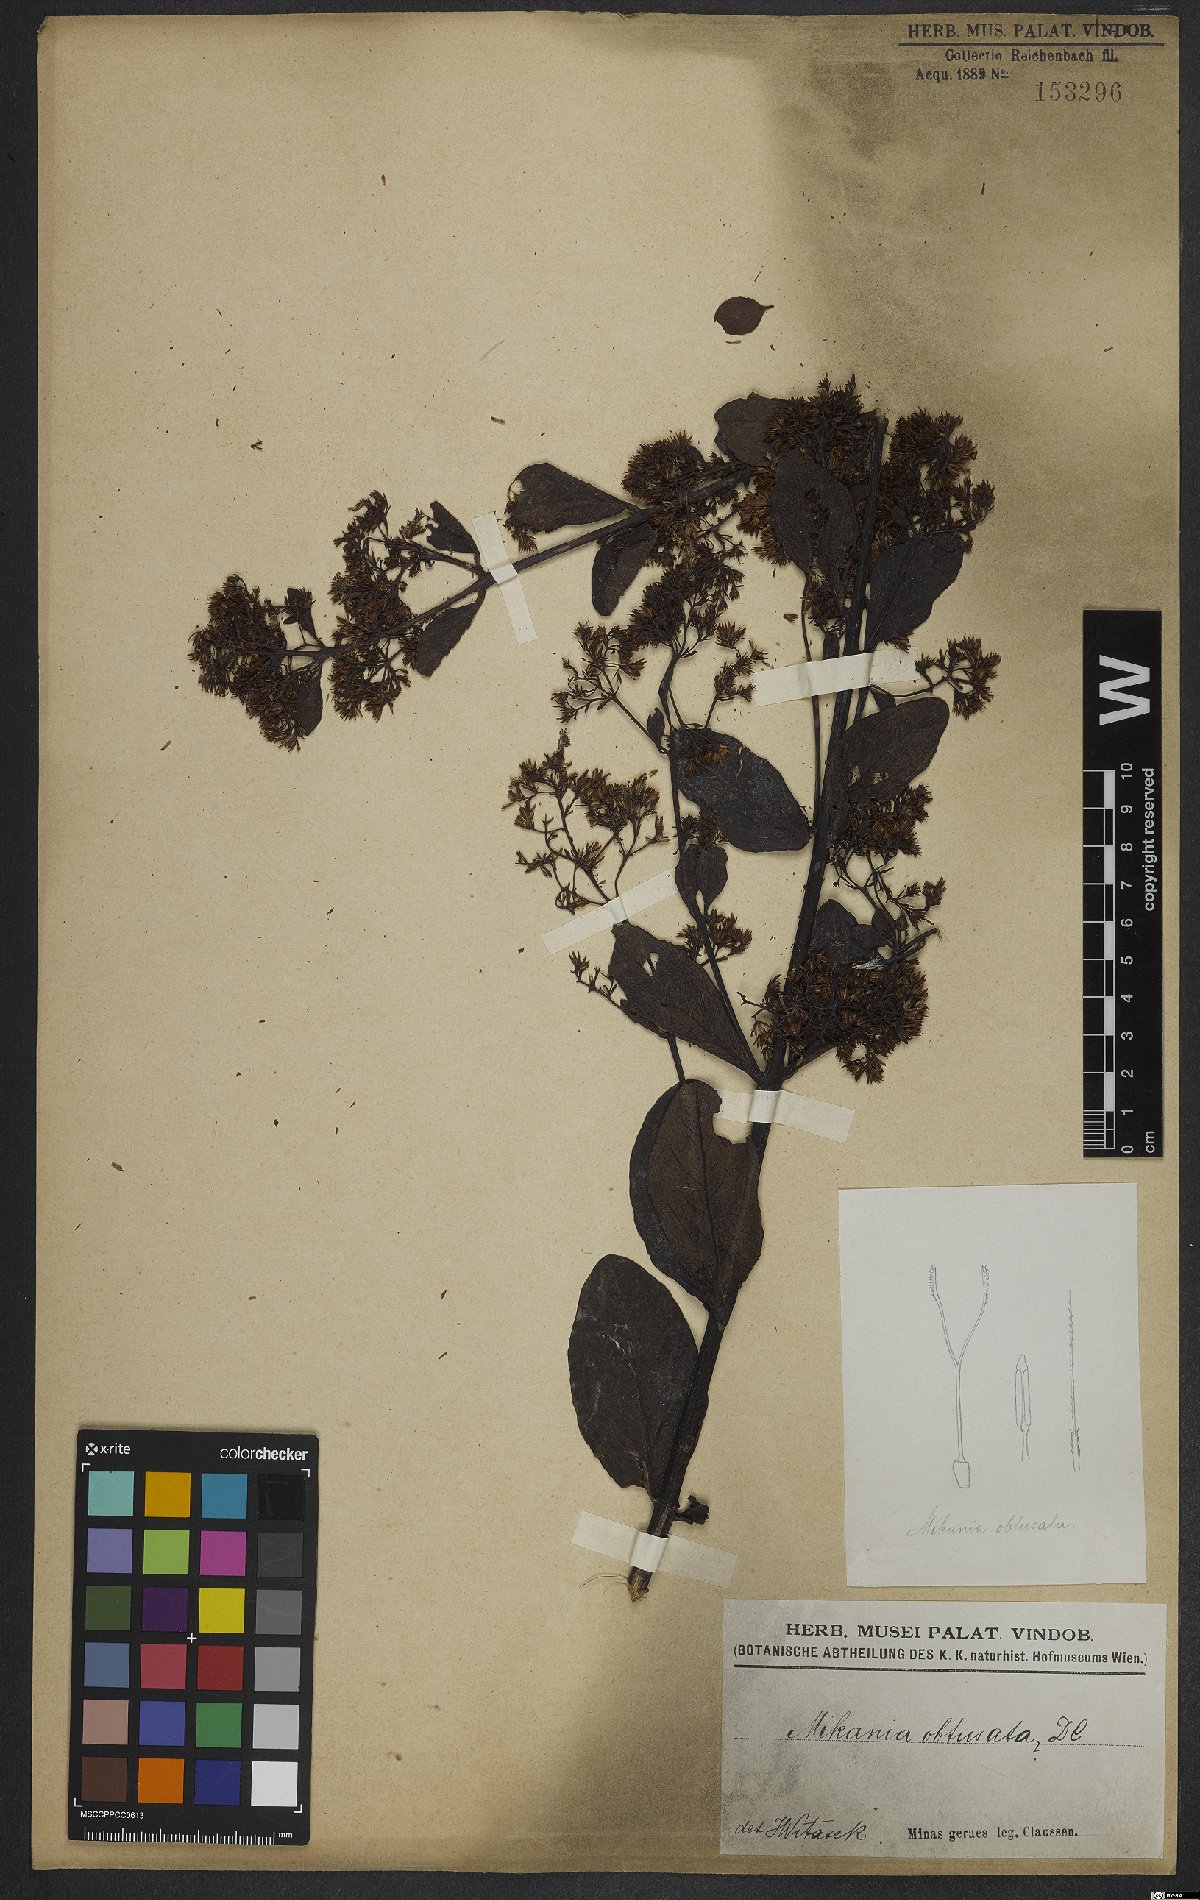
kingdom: Plantae
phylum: Tracheophyta
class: Magnoliopsida
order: Asterales
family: Asteraceae
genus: Mikania
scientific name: Mikania obtusata
